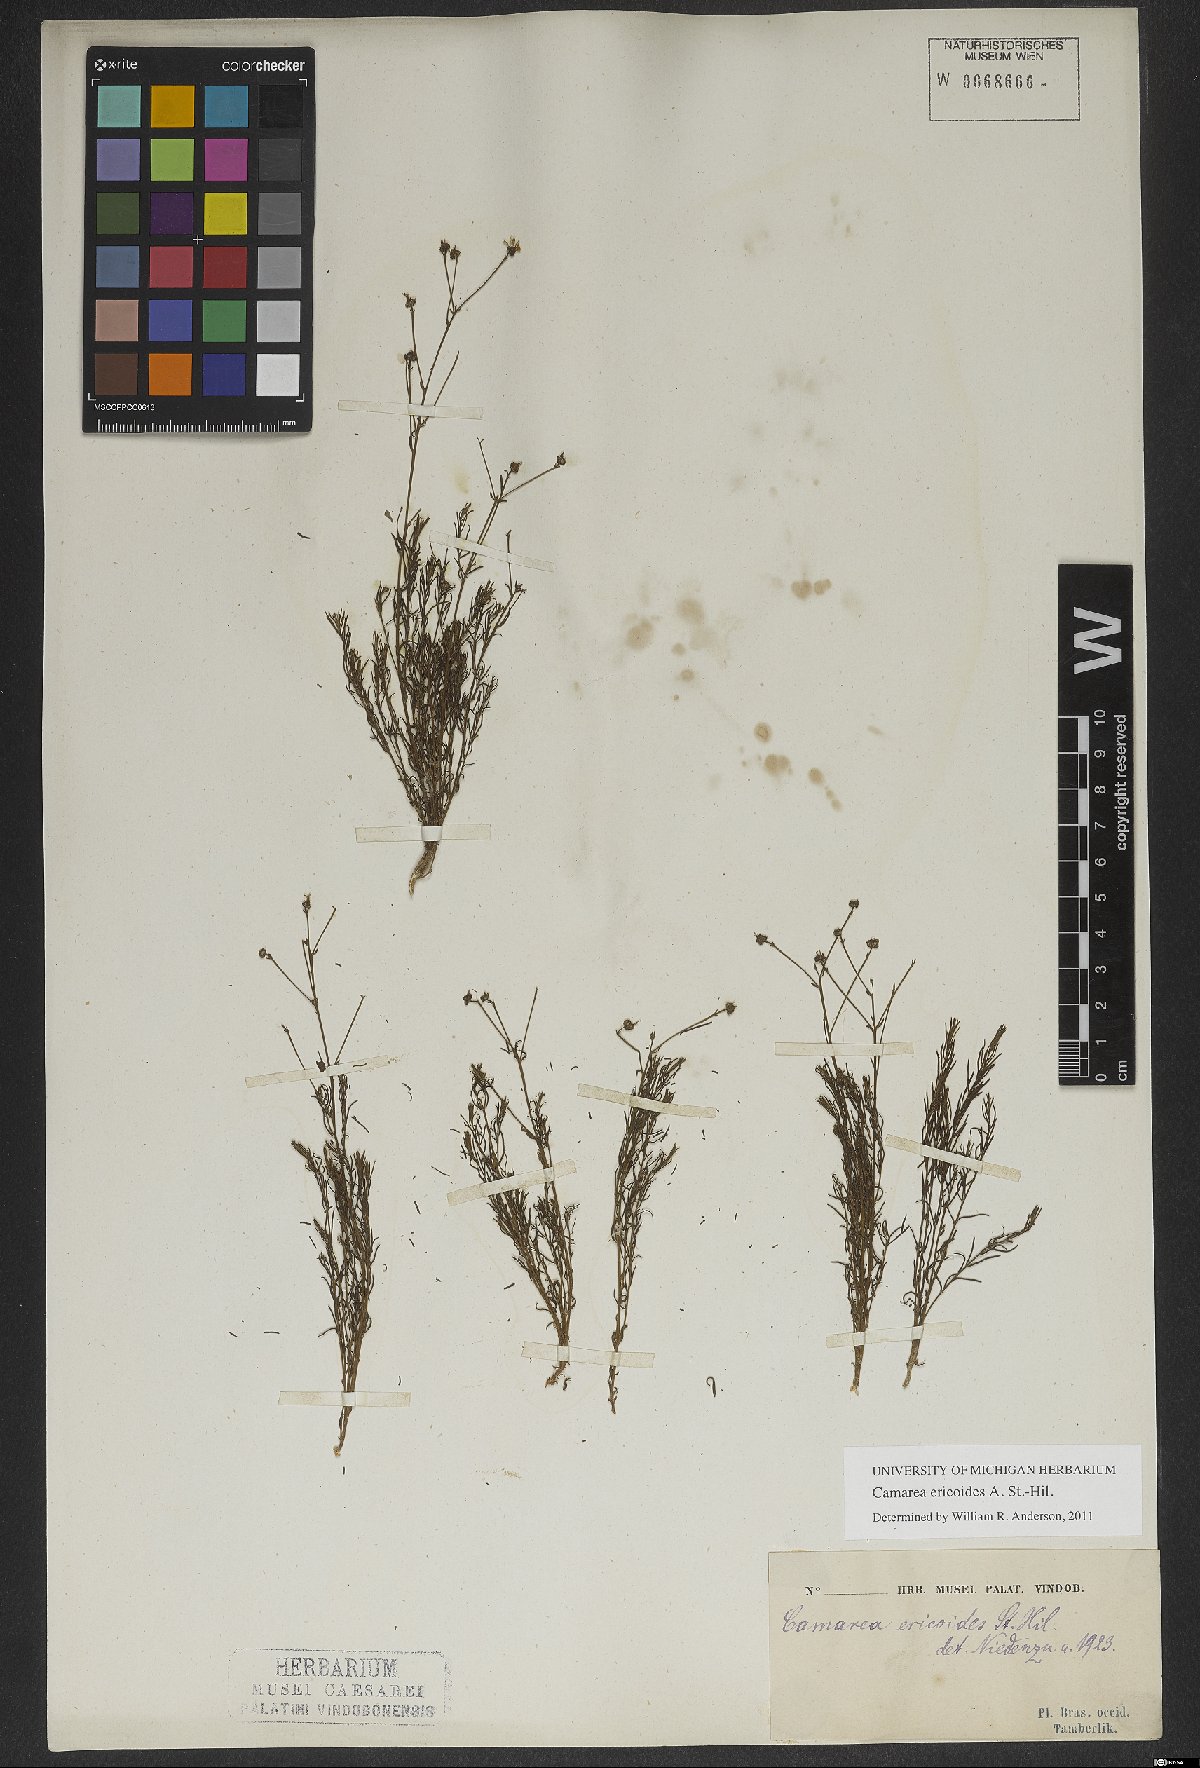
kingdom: Plantae
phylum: Tracheophyta
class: Magnoliopsida
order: Malpighiales
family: Malpighiaceae
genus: Camarea
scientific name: Camarea ericoides
